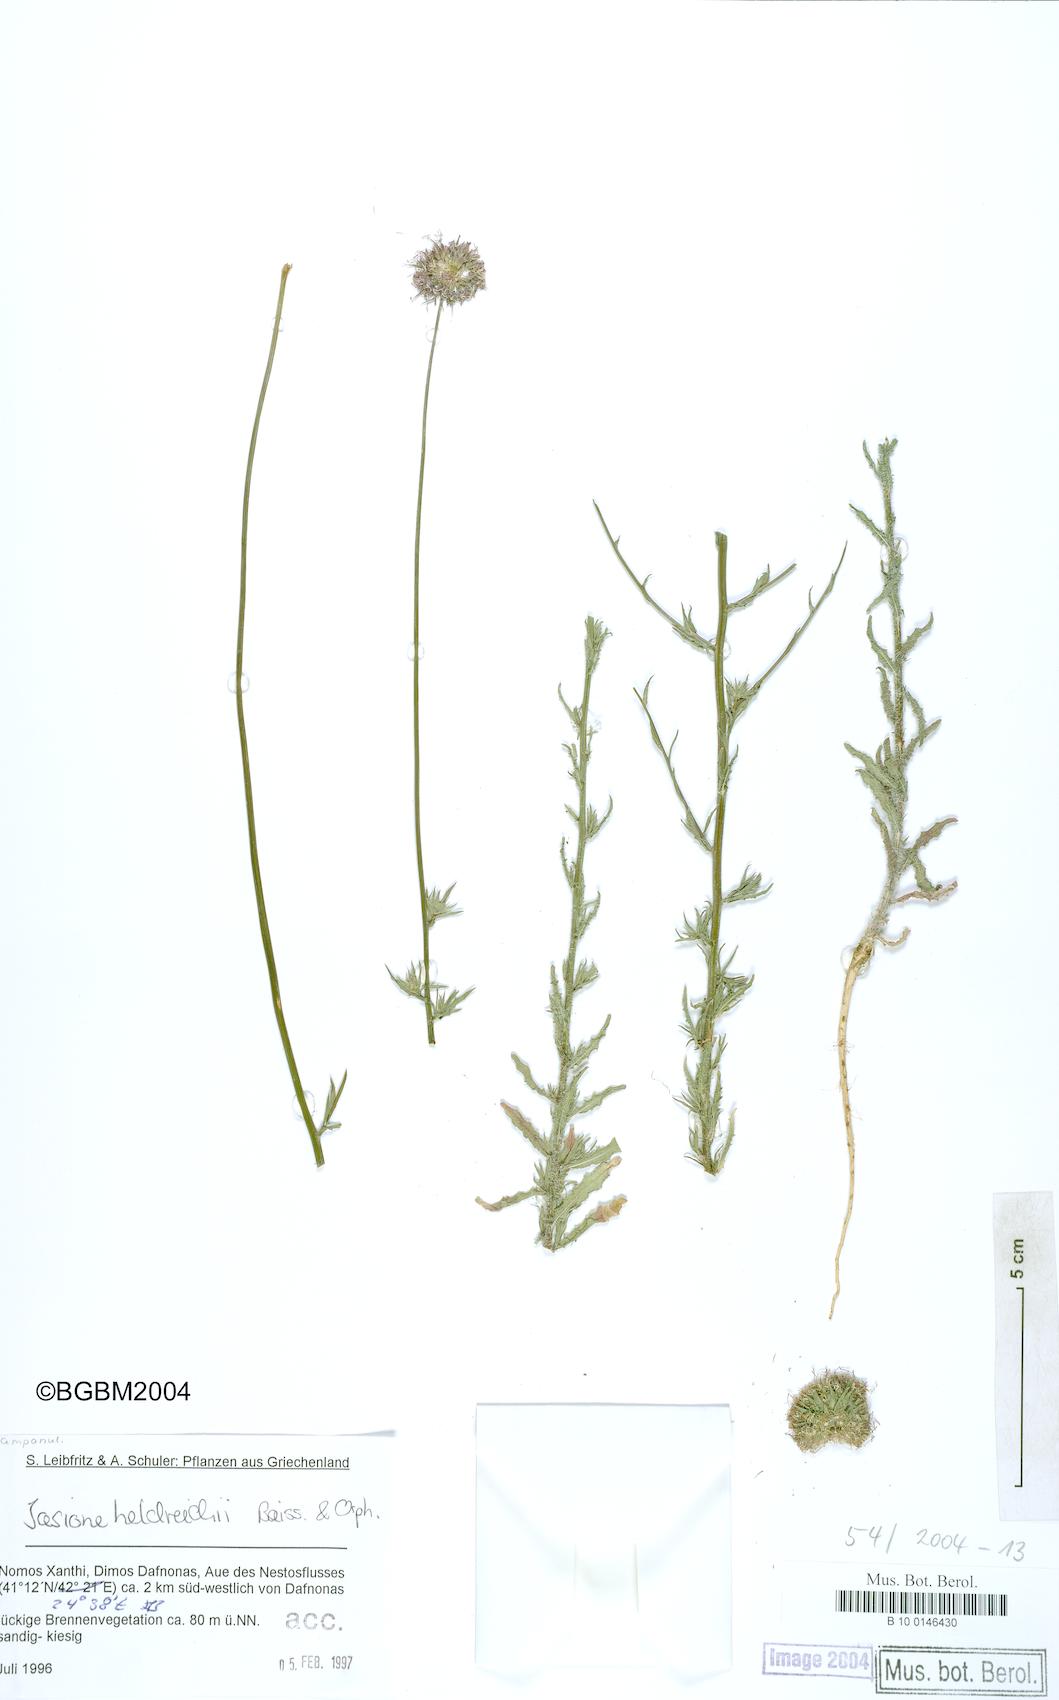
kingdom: Plantae
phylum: Tracheophyta
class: Magnoliopsida
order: Asterales
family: Campanulaceae
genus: Jasione
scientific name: Jasione heldreichii
